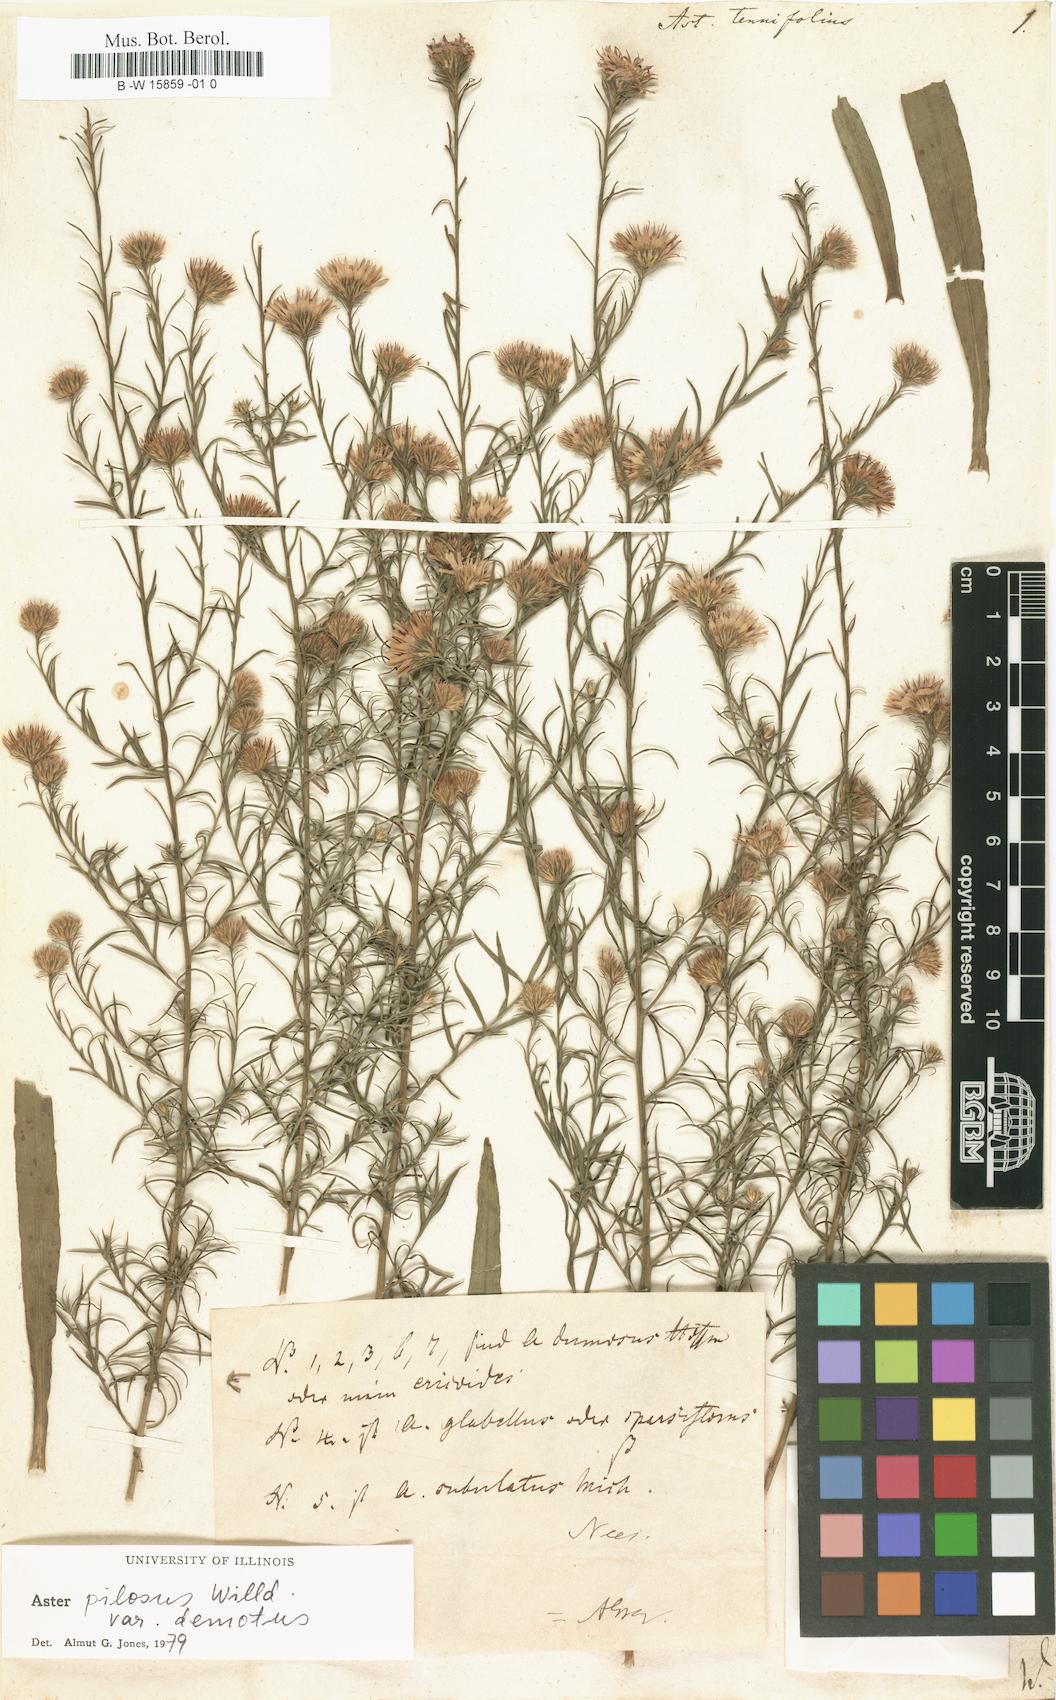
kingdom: Plantae
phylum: Tracheophyta
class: Magnoliopsida
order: Asterales
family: Asteraceae
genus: Symphyotrichum
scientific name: Symphyotrichum tenuifolium
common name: Perennial salt-marsh aster
